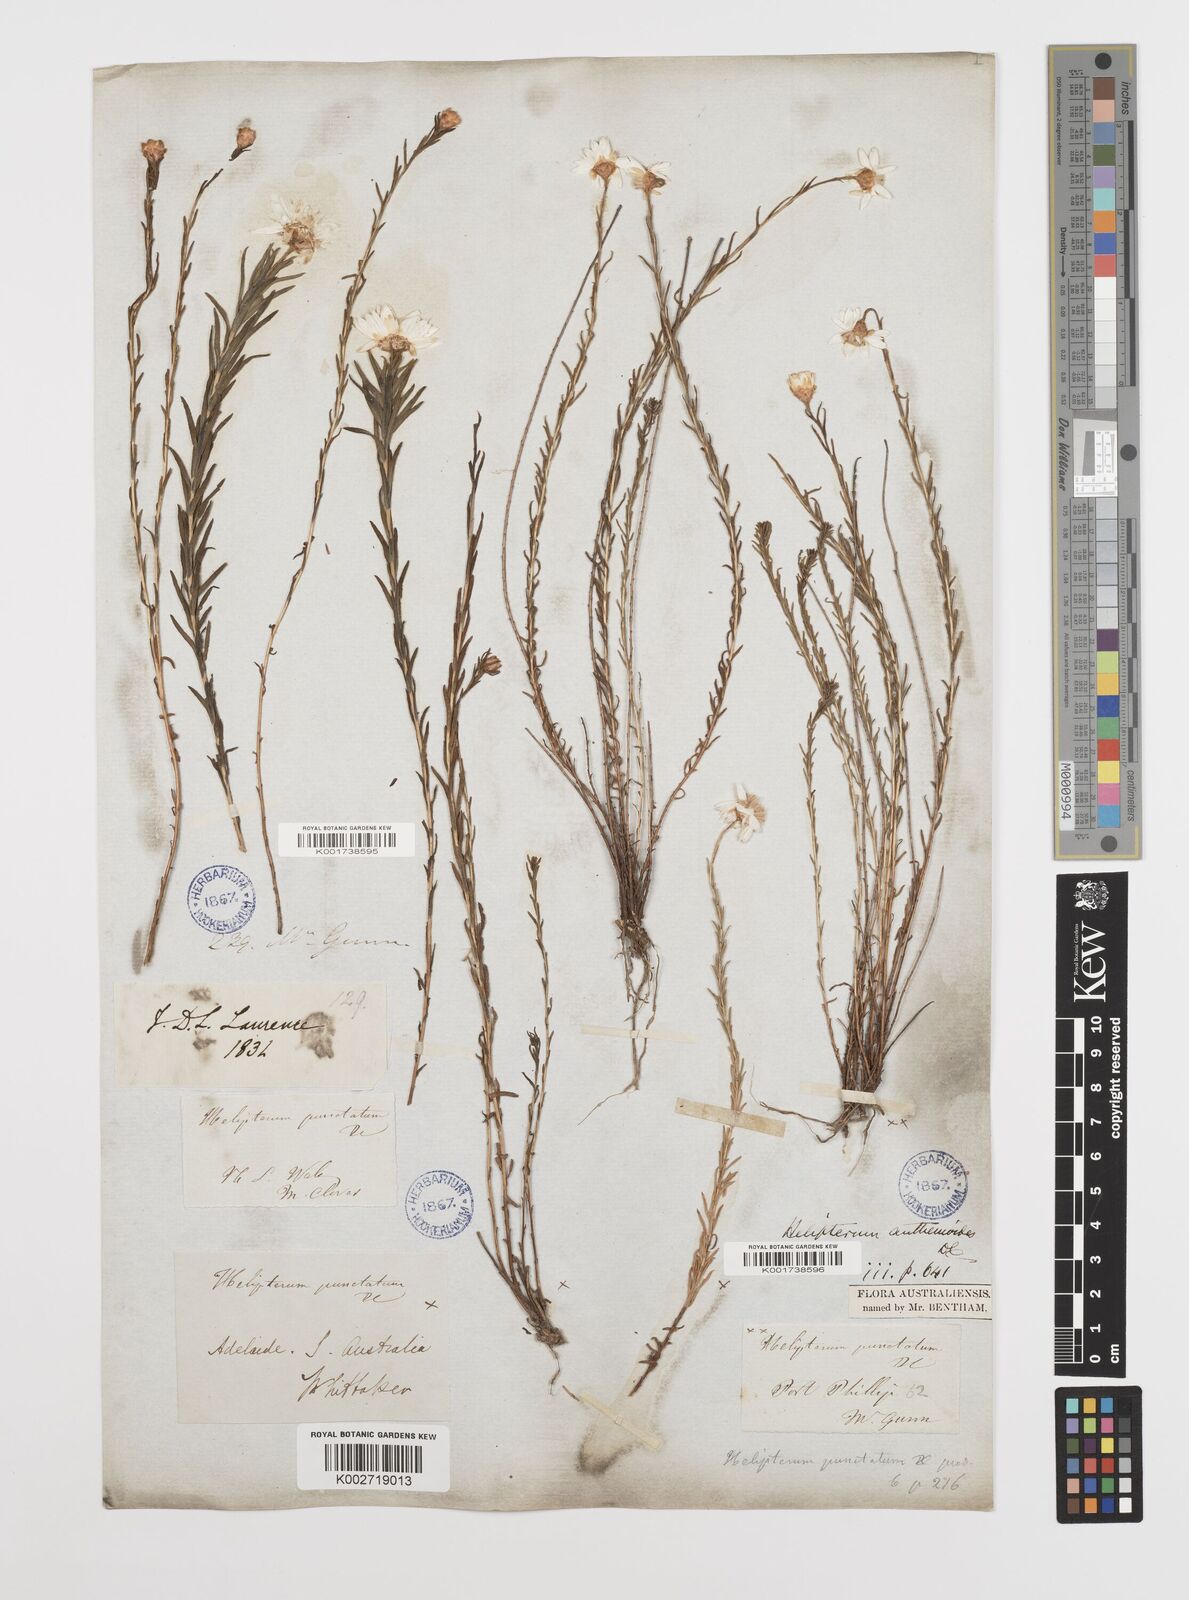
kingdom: Plantae
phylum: Tracheophyta
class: Magnoliopsida
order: Asterales
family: Asteraceae
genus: Rhodanthe
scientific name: Rhodanthe anthemoides
